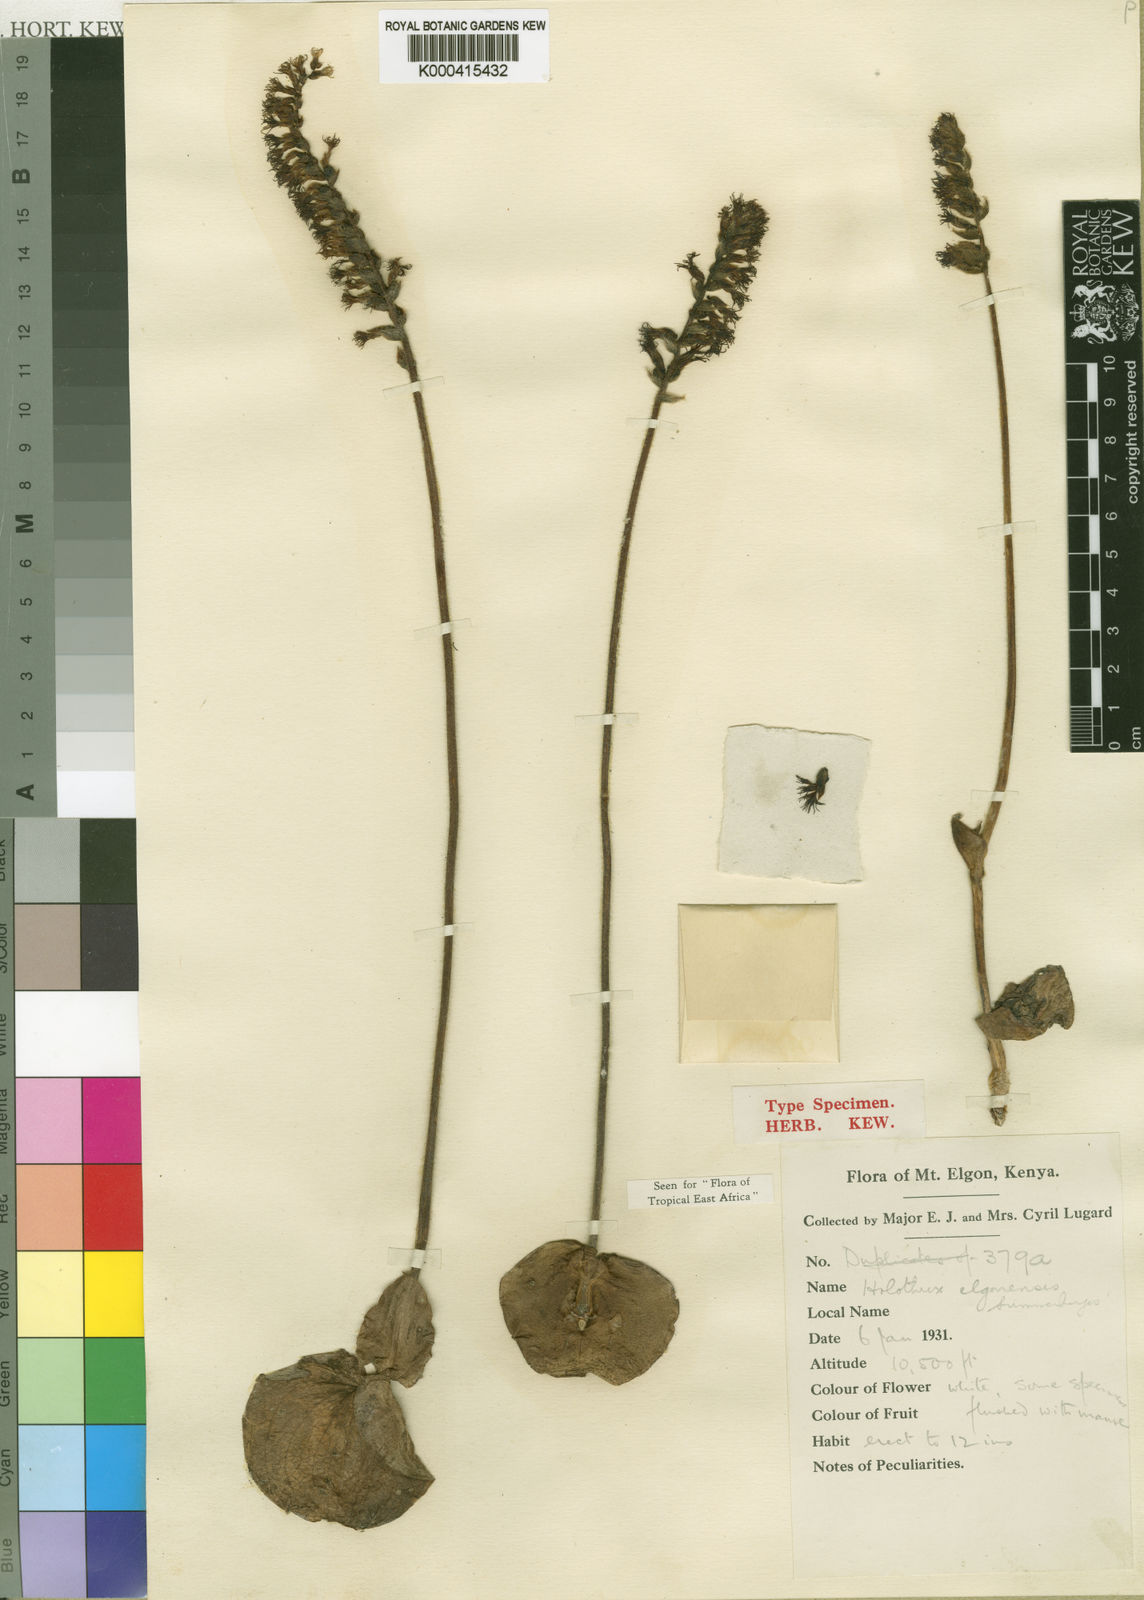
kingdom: Plantae
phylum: Tracheophyta
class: Liliopsida
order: Asparagales
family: Orchidaceae
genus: Holothrix
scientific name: Holothrix elgonensis
